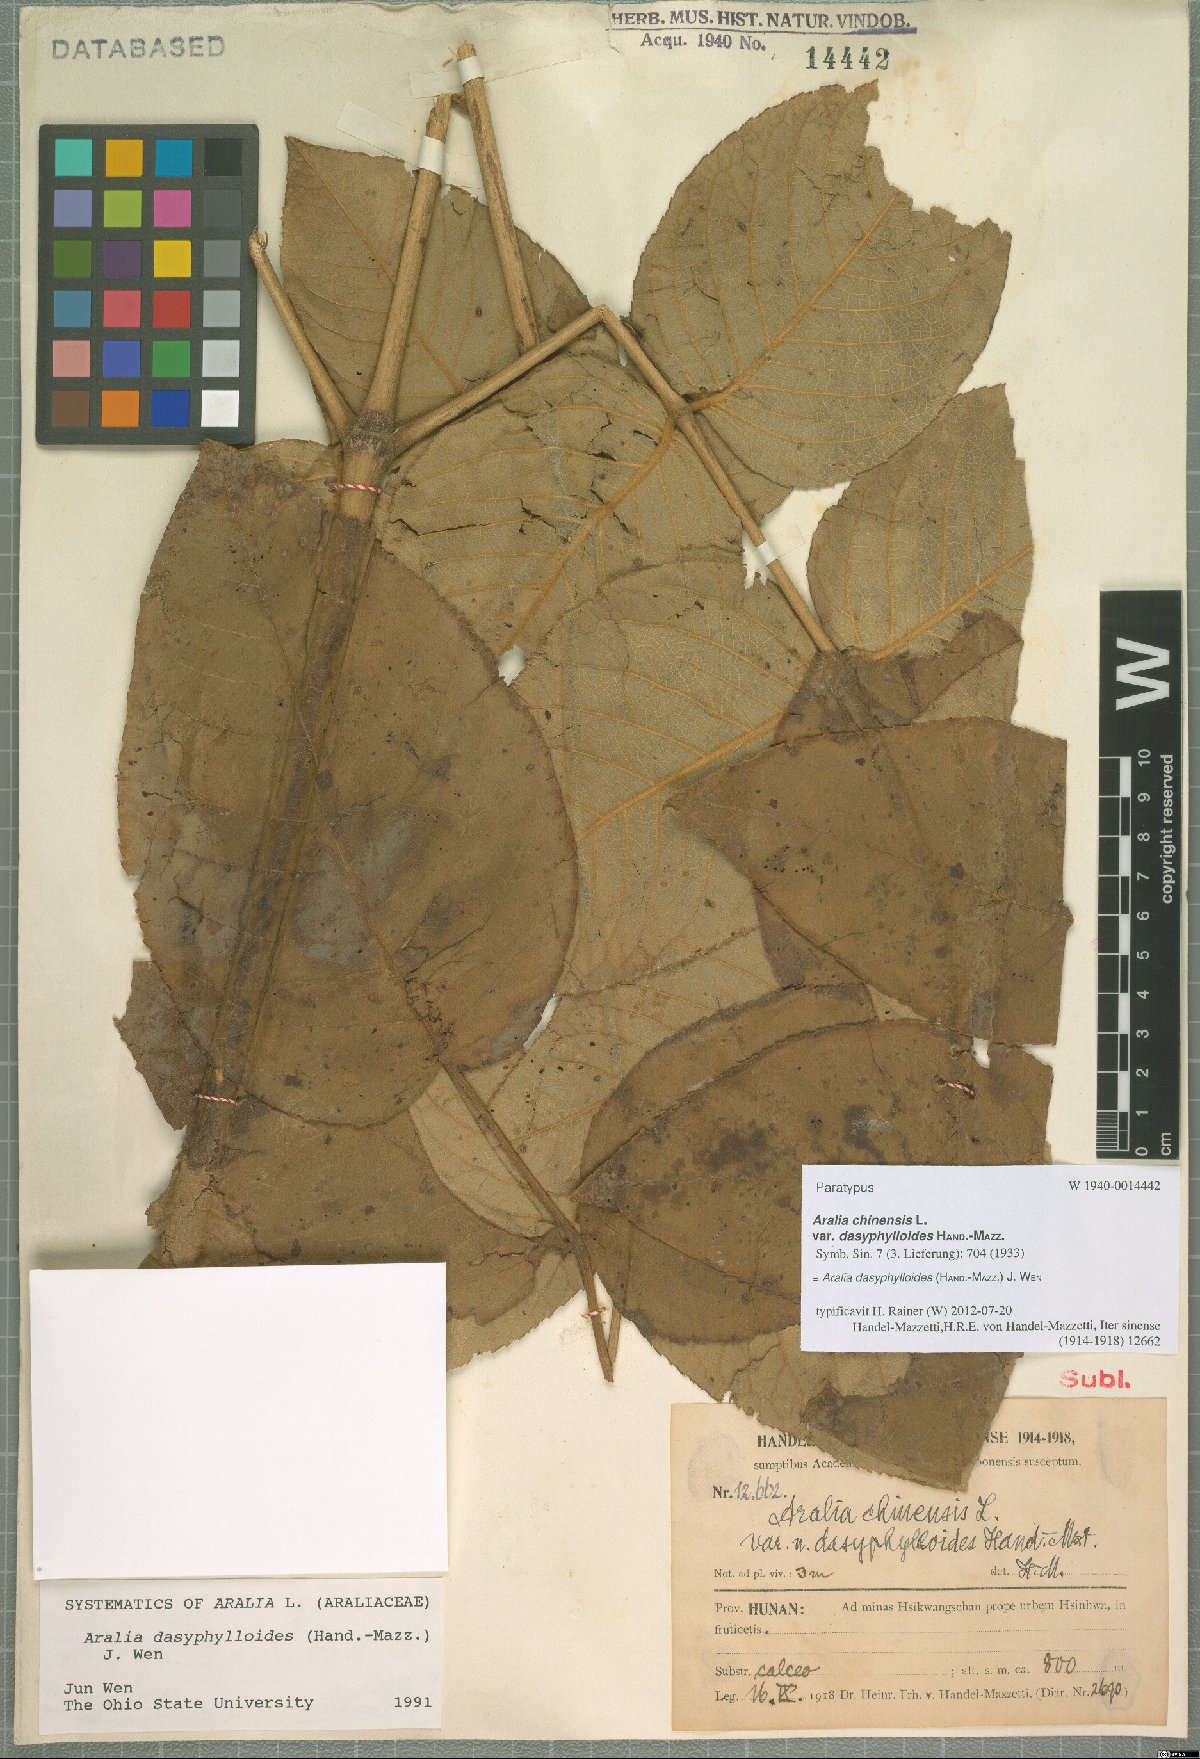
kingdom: Plantae
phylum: Tracheophyta
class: Magnoliopsida
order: Apiales
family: Araliaceae
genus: Aralia
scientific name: Aralia dasyphylloides
